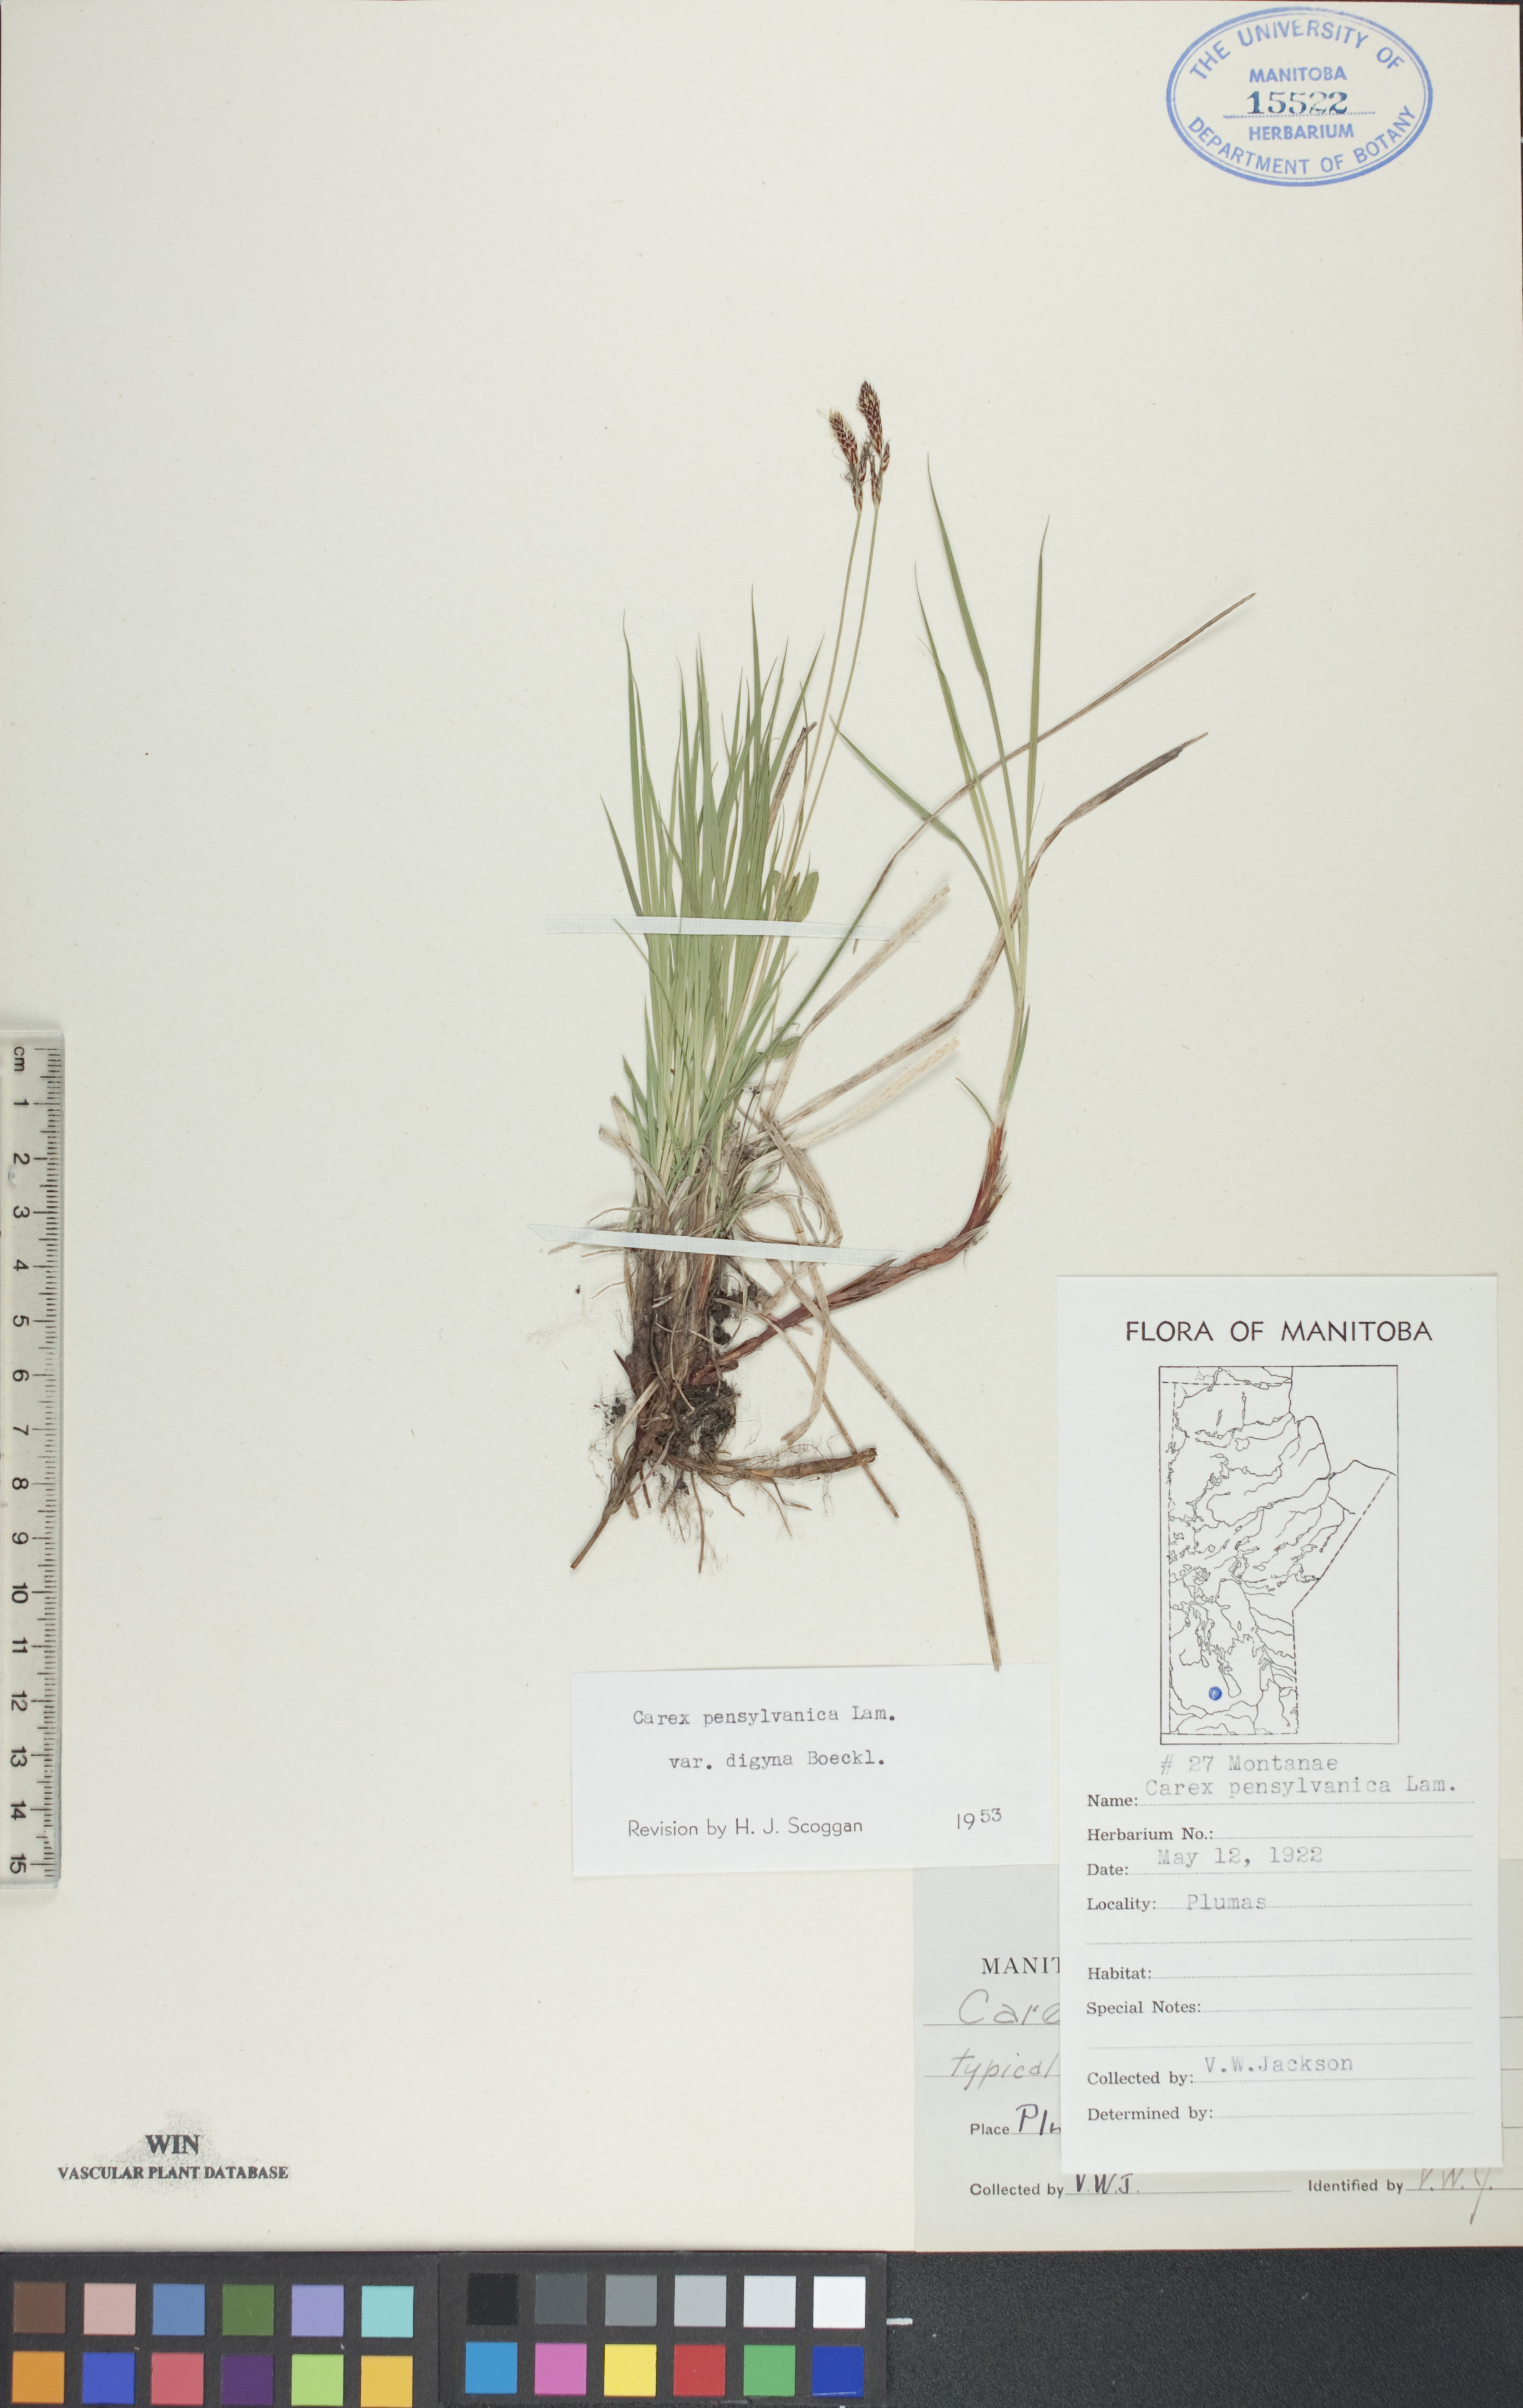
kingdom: Plantae
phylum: Tracheophyta
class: Liliopsida
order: Poales
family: Cyperaceae
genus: Carex
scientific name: Carex inops
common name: Long-stolon sedge
